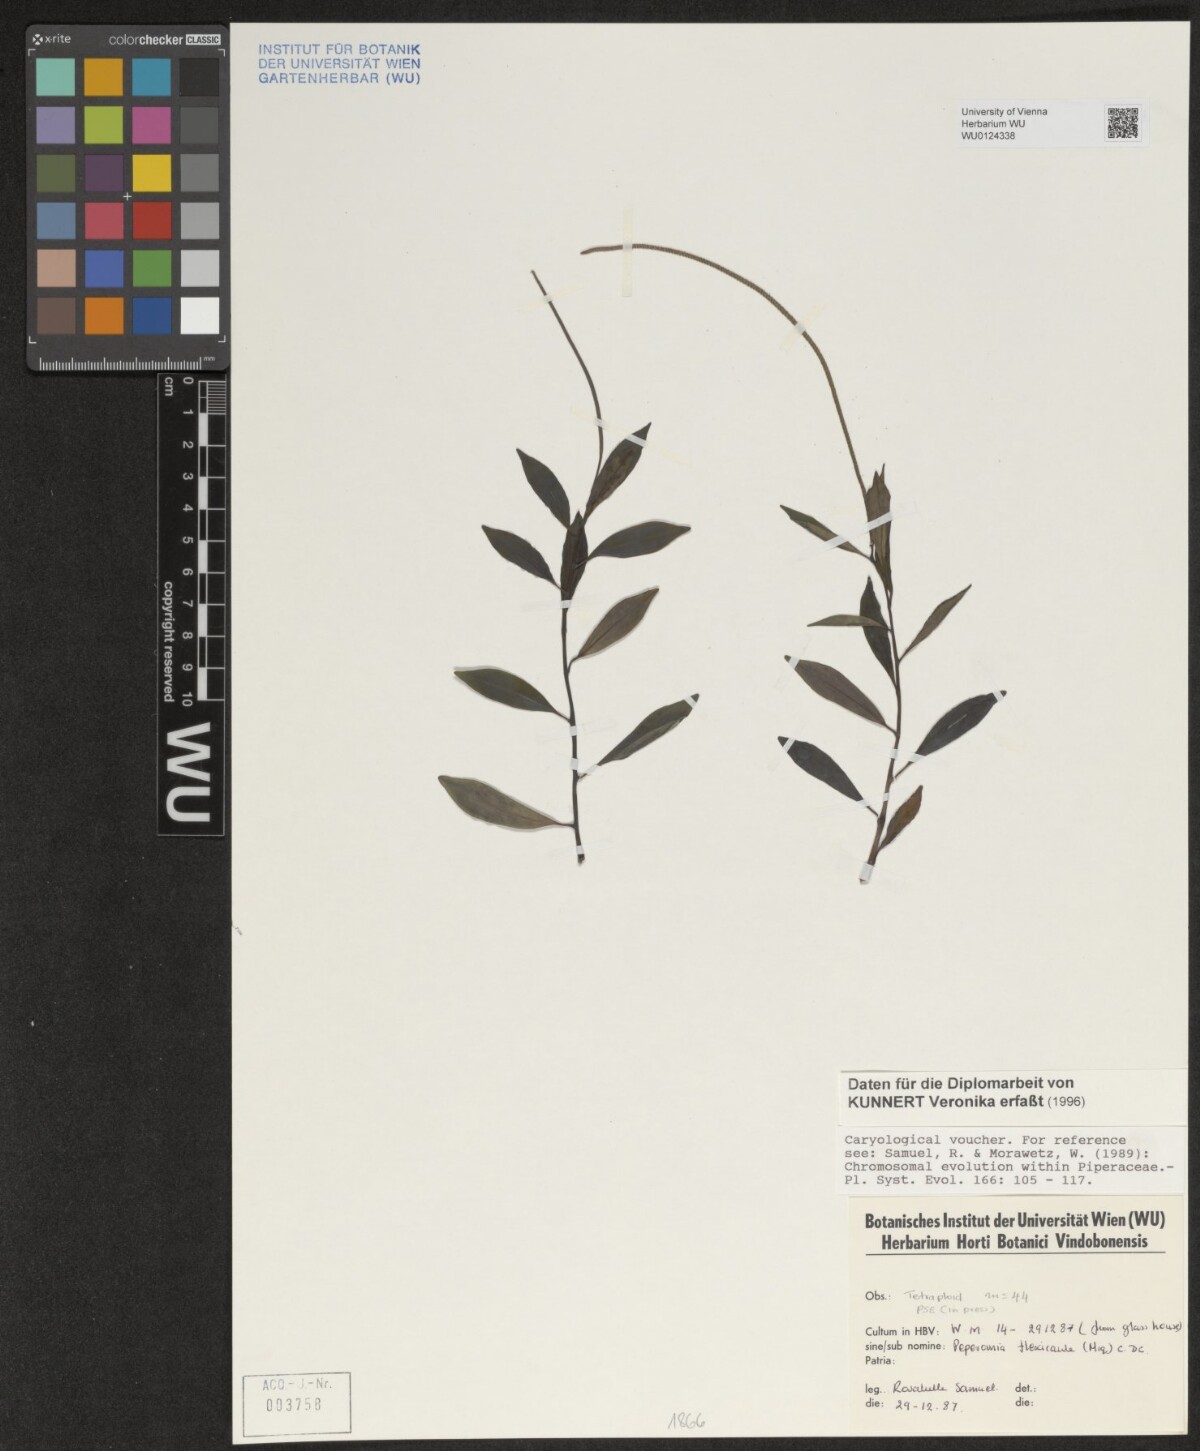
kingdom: Plantae
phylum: Tracheophyta
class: Magnoliopsida
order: Piperales
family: Piperaceae
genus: Peperomia
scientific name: Peperomia flexicaulis
